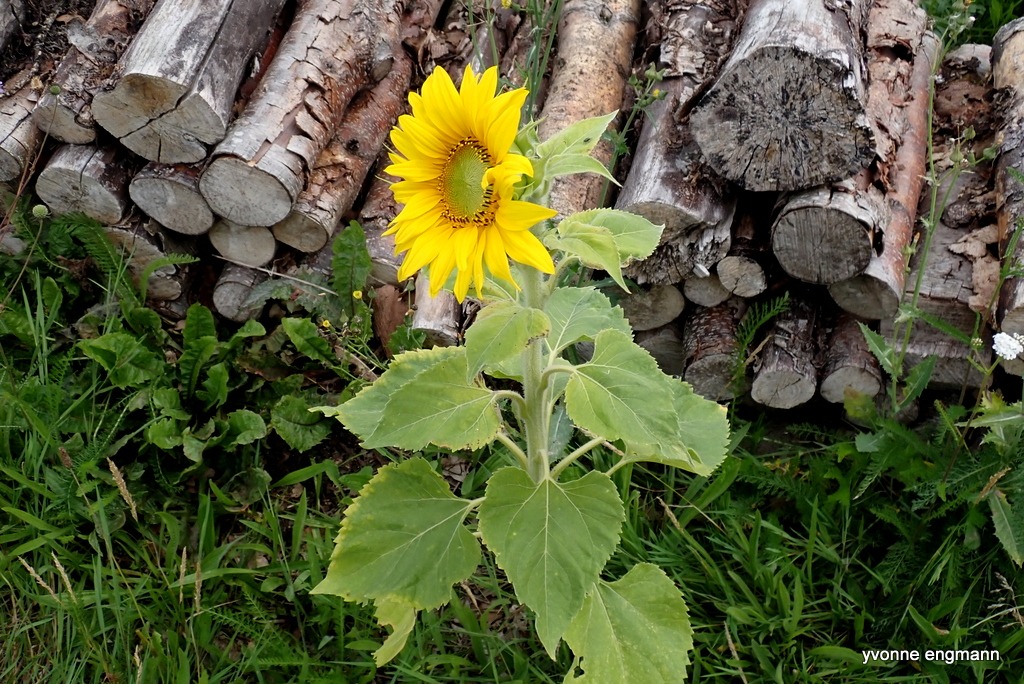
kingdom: Plantae
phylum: Tracheophyta
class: Magnoliopsida
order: Asterales
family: Asteraceae
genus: Helianthus
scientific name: Helianthus annuus
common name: Solsikke
